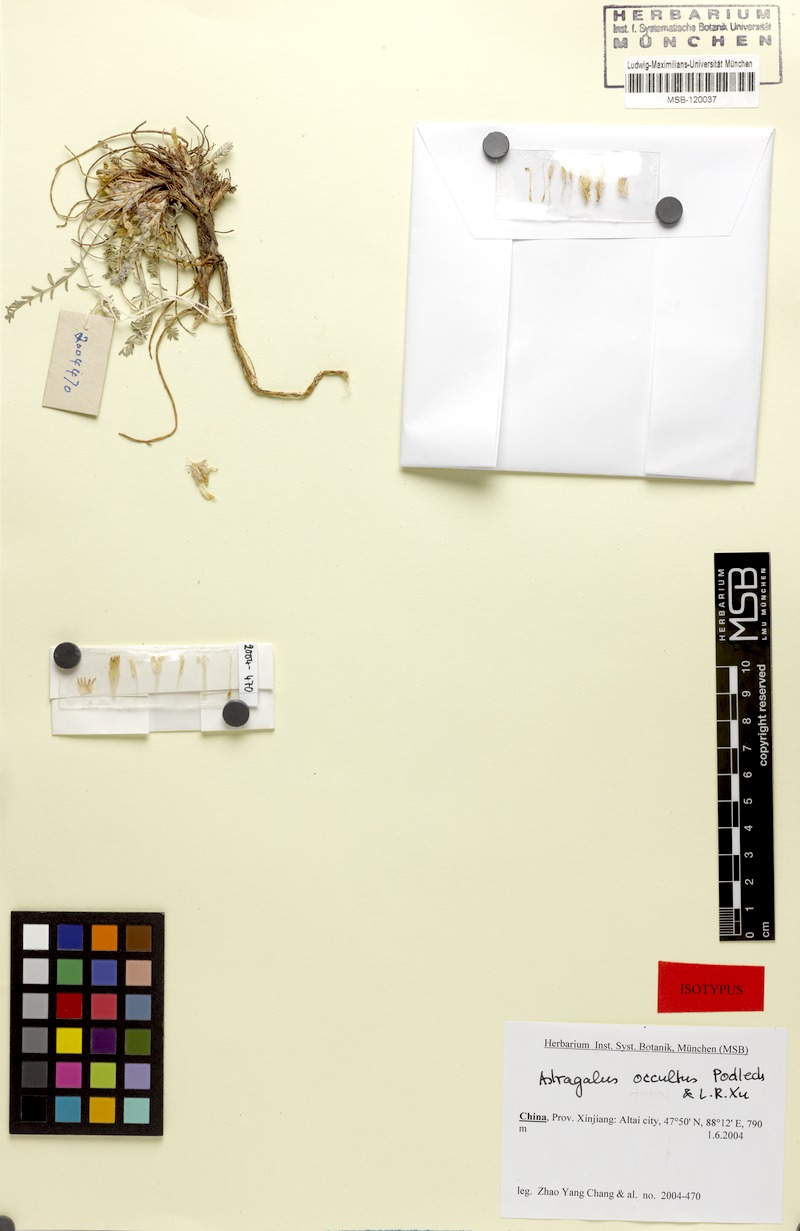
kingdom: Plantae
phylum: Tracheophyta
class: Magnoliopsida
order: Fabales
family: Fabaceae
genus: Astragalus
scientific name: Astragalus occultus
